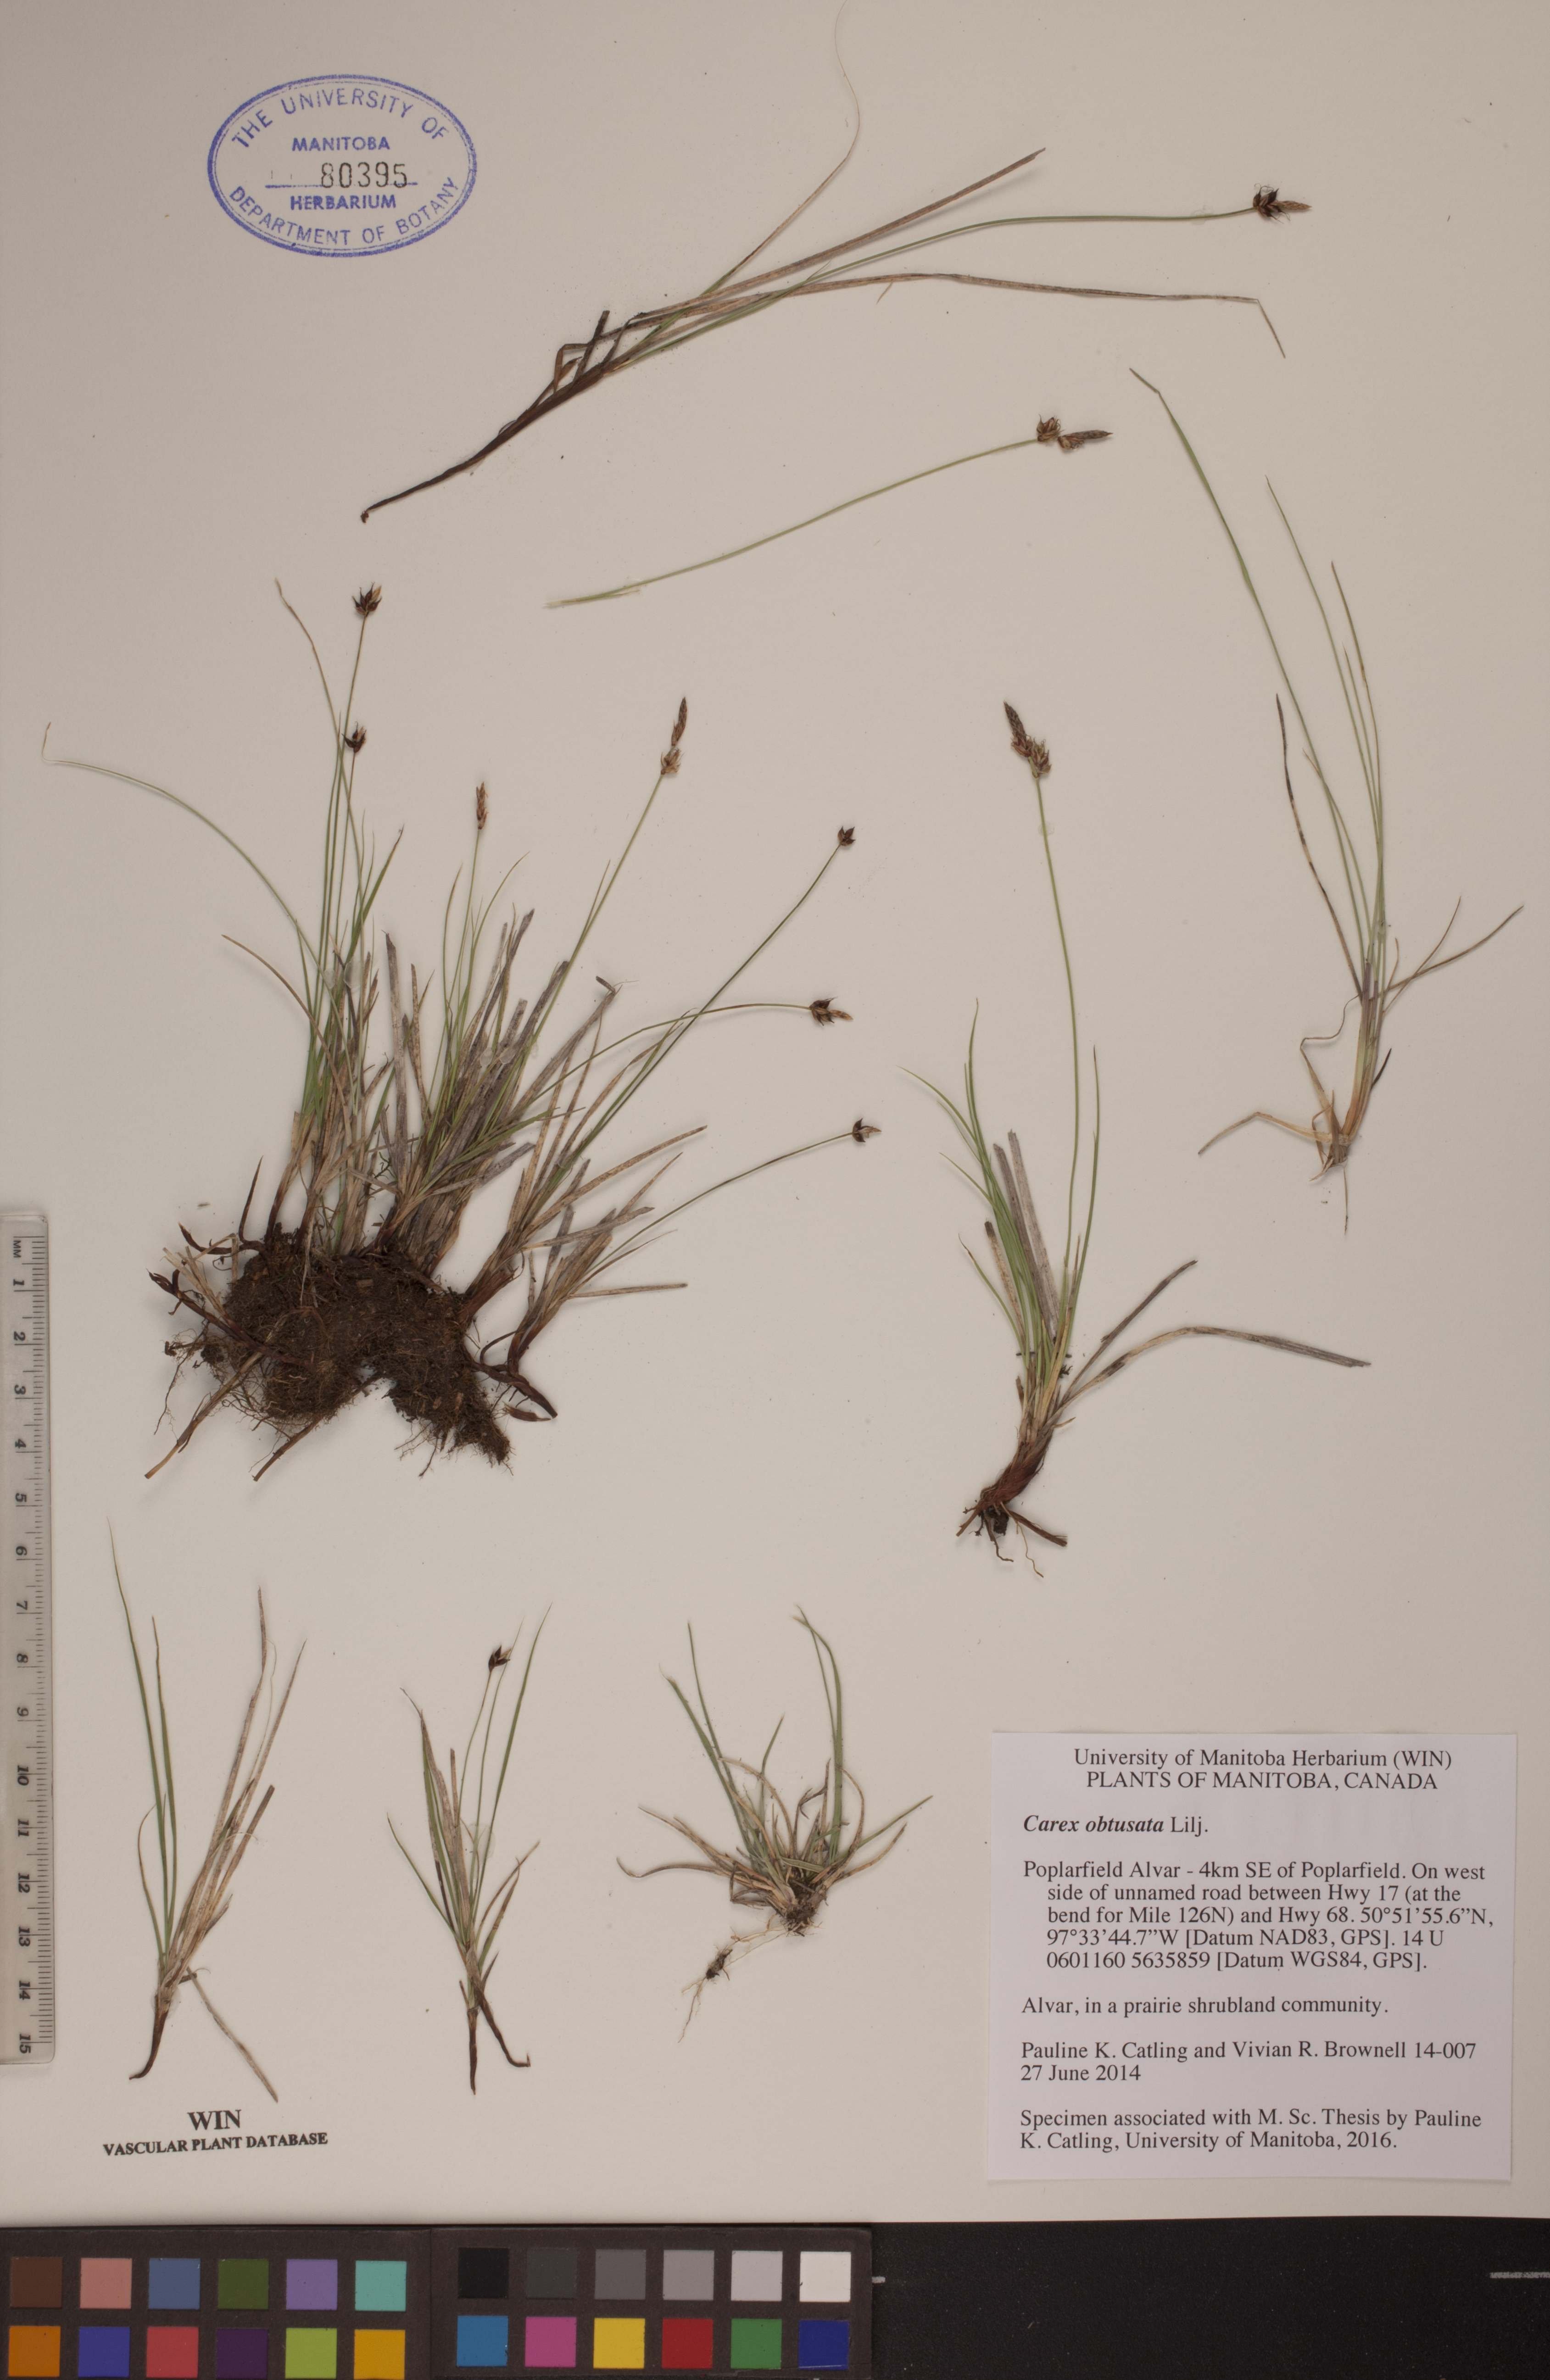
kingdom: Plantae
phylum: Tracheophyta
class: Liliopsida
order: Poales
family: Cyperaceae
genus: Carex
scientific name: Carex obtusata
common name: Blunt sedge
